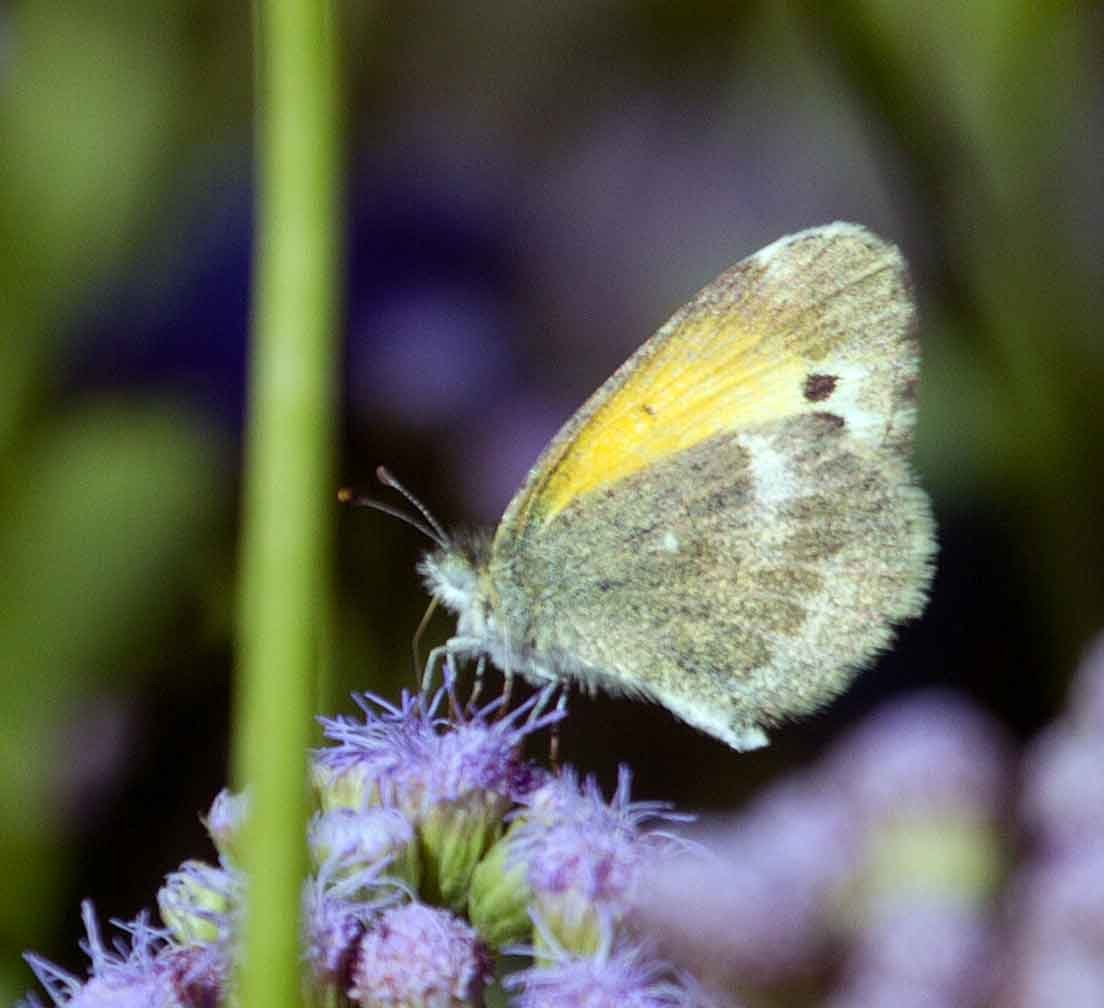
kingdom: Animalia
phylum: Arthropoda
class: Insecta
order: Lepidoptera
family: Pieridae
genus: Nathalis
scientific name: Nathalis iole
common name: Dainty Sulphur
